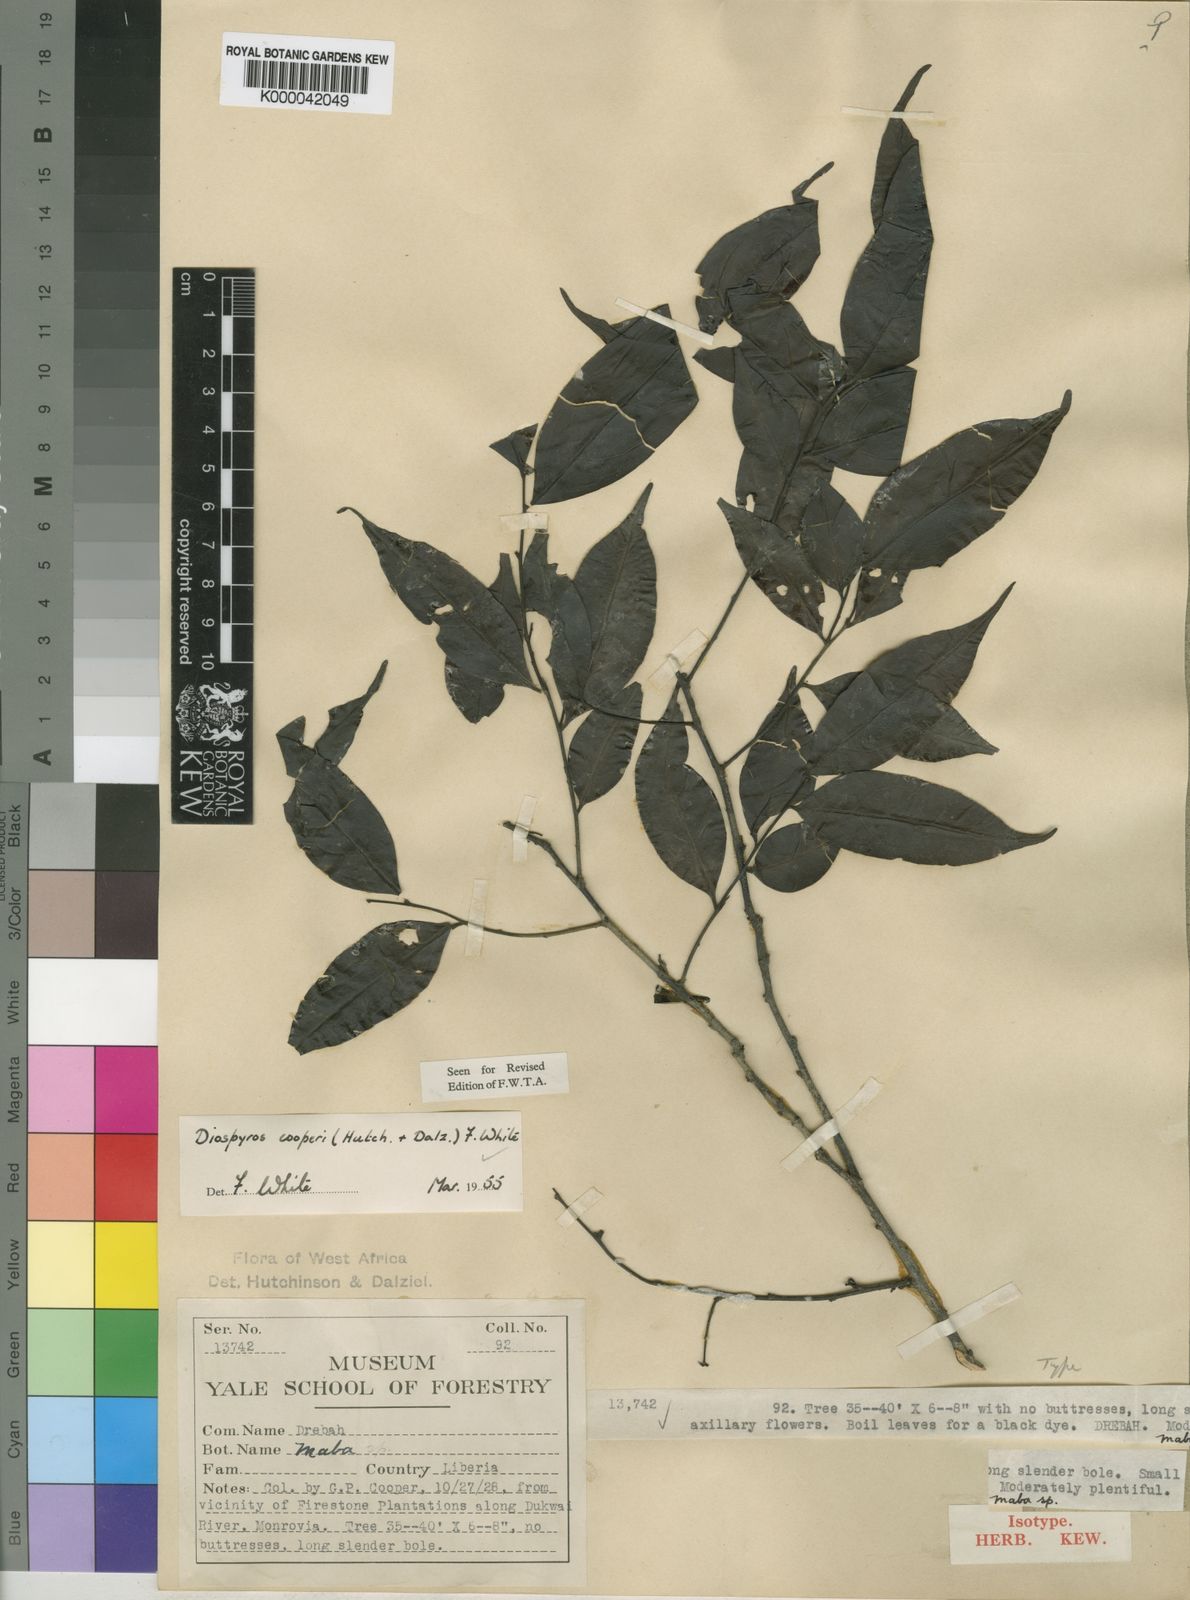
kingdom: Plantae
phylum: Tracheophyta
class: Magnoliopsida
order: Ericales
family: Ebenaceae
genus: Diospyros
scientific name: Diospyros cooperi
